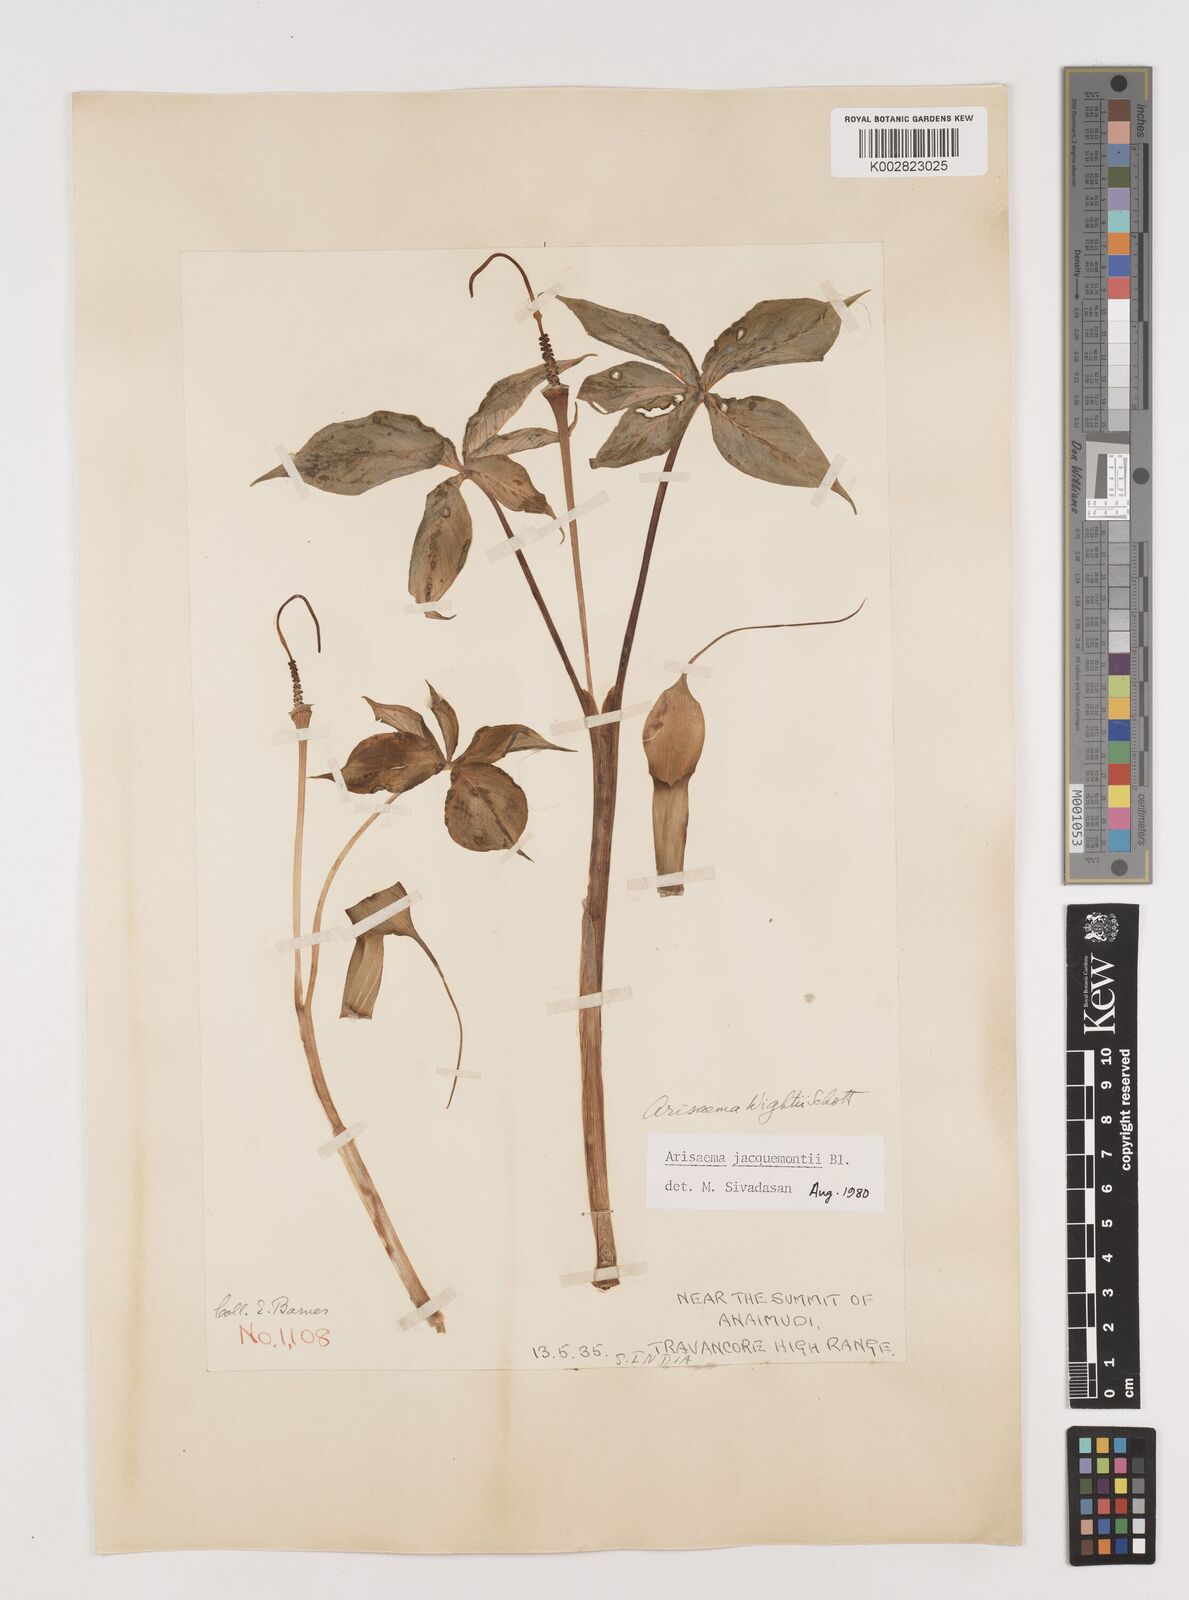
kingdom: Plantae
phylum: Tracheophyta
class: Liliopsida
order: Alismatales
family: Araceae
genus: Arisaema
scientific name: Arisaema jacquemontii
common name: Jacquemont's cobra-lily
